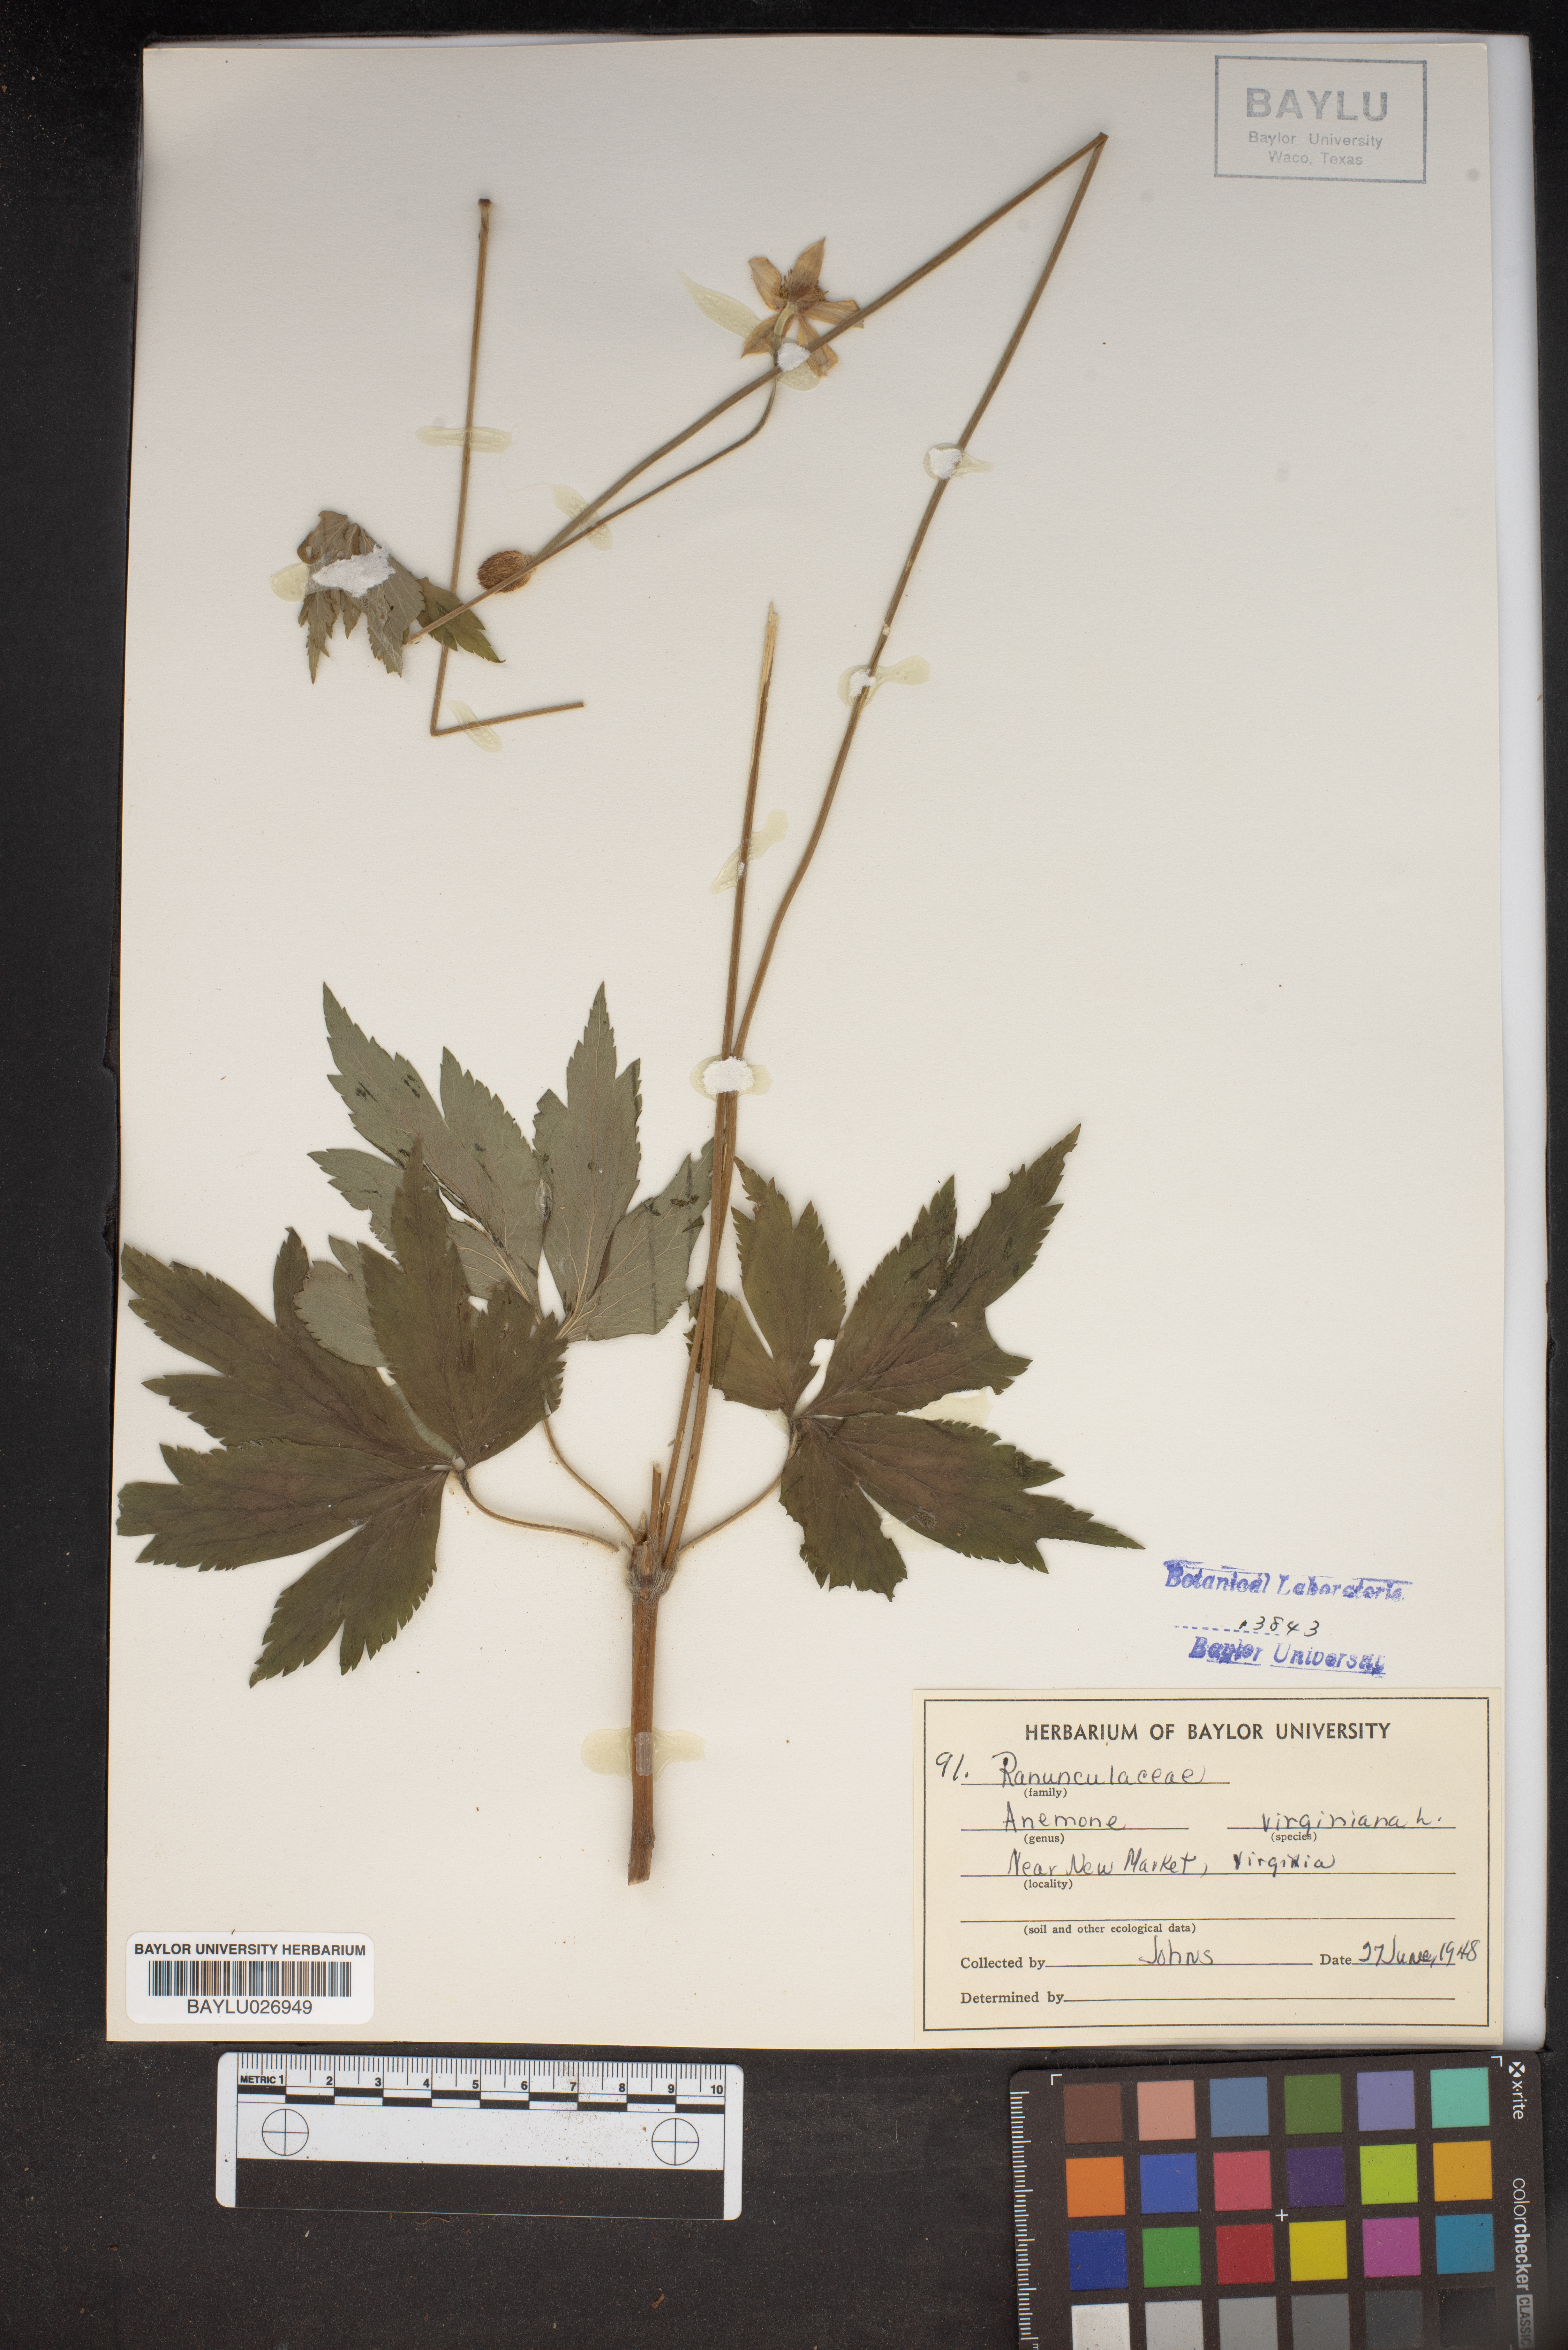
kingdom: Plantae
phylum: Tracheophyta
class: Magnoliopsida
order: Ranunculales
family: Ranunculaceae
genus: Anemone
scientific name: Anemone virginiana
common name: Tall anemone
